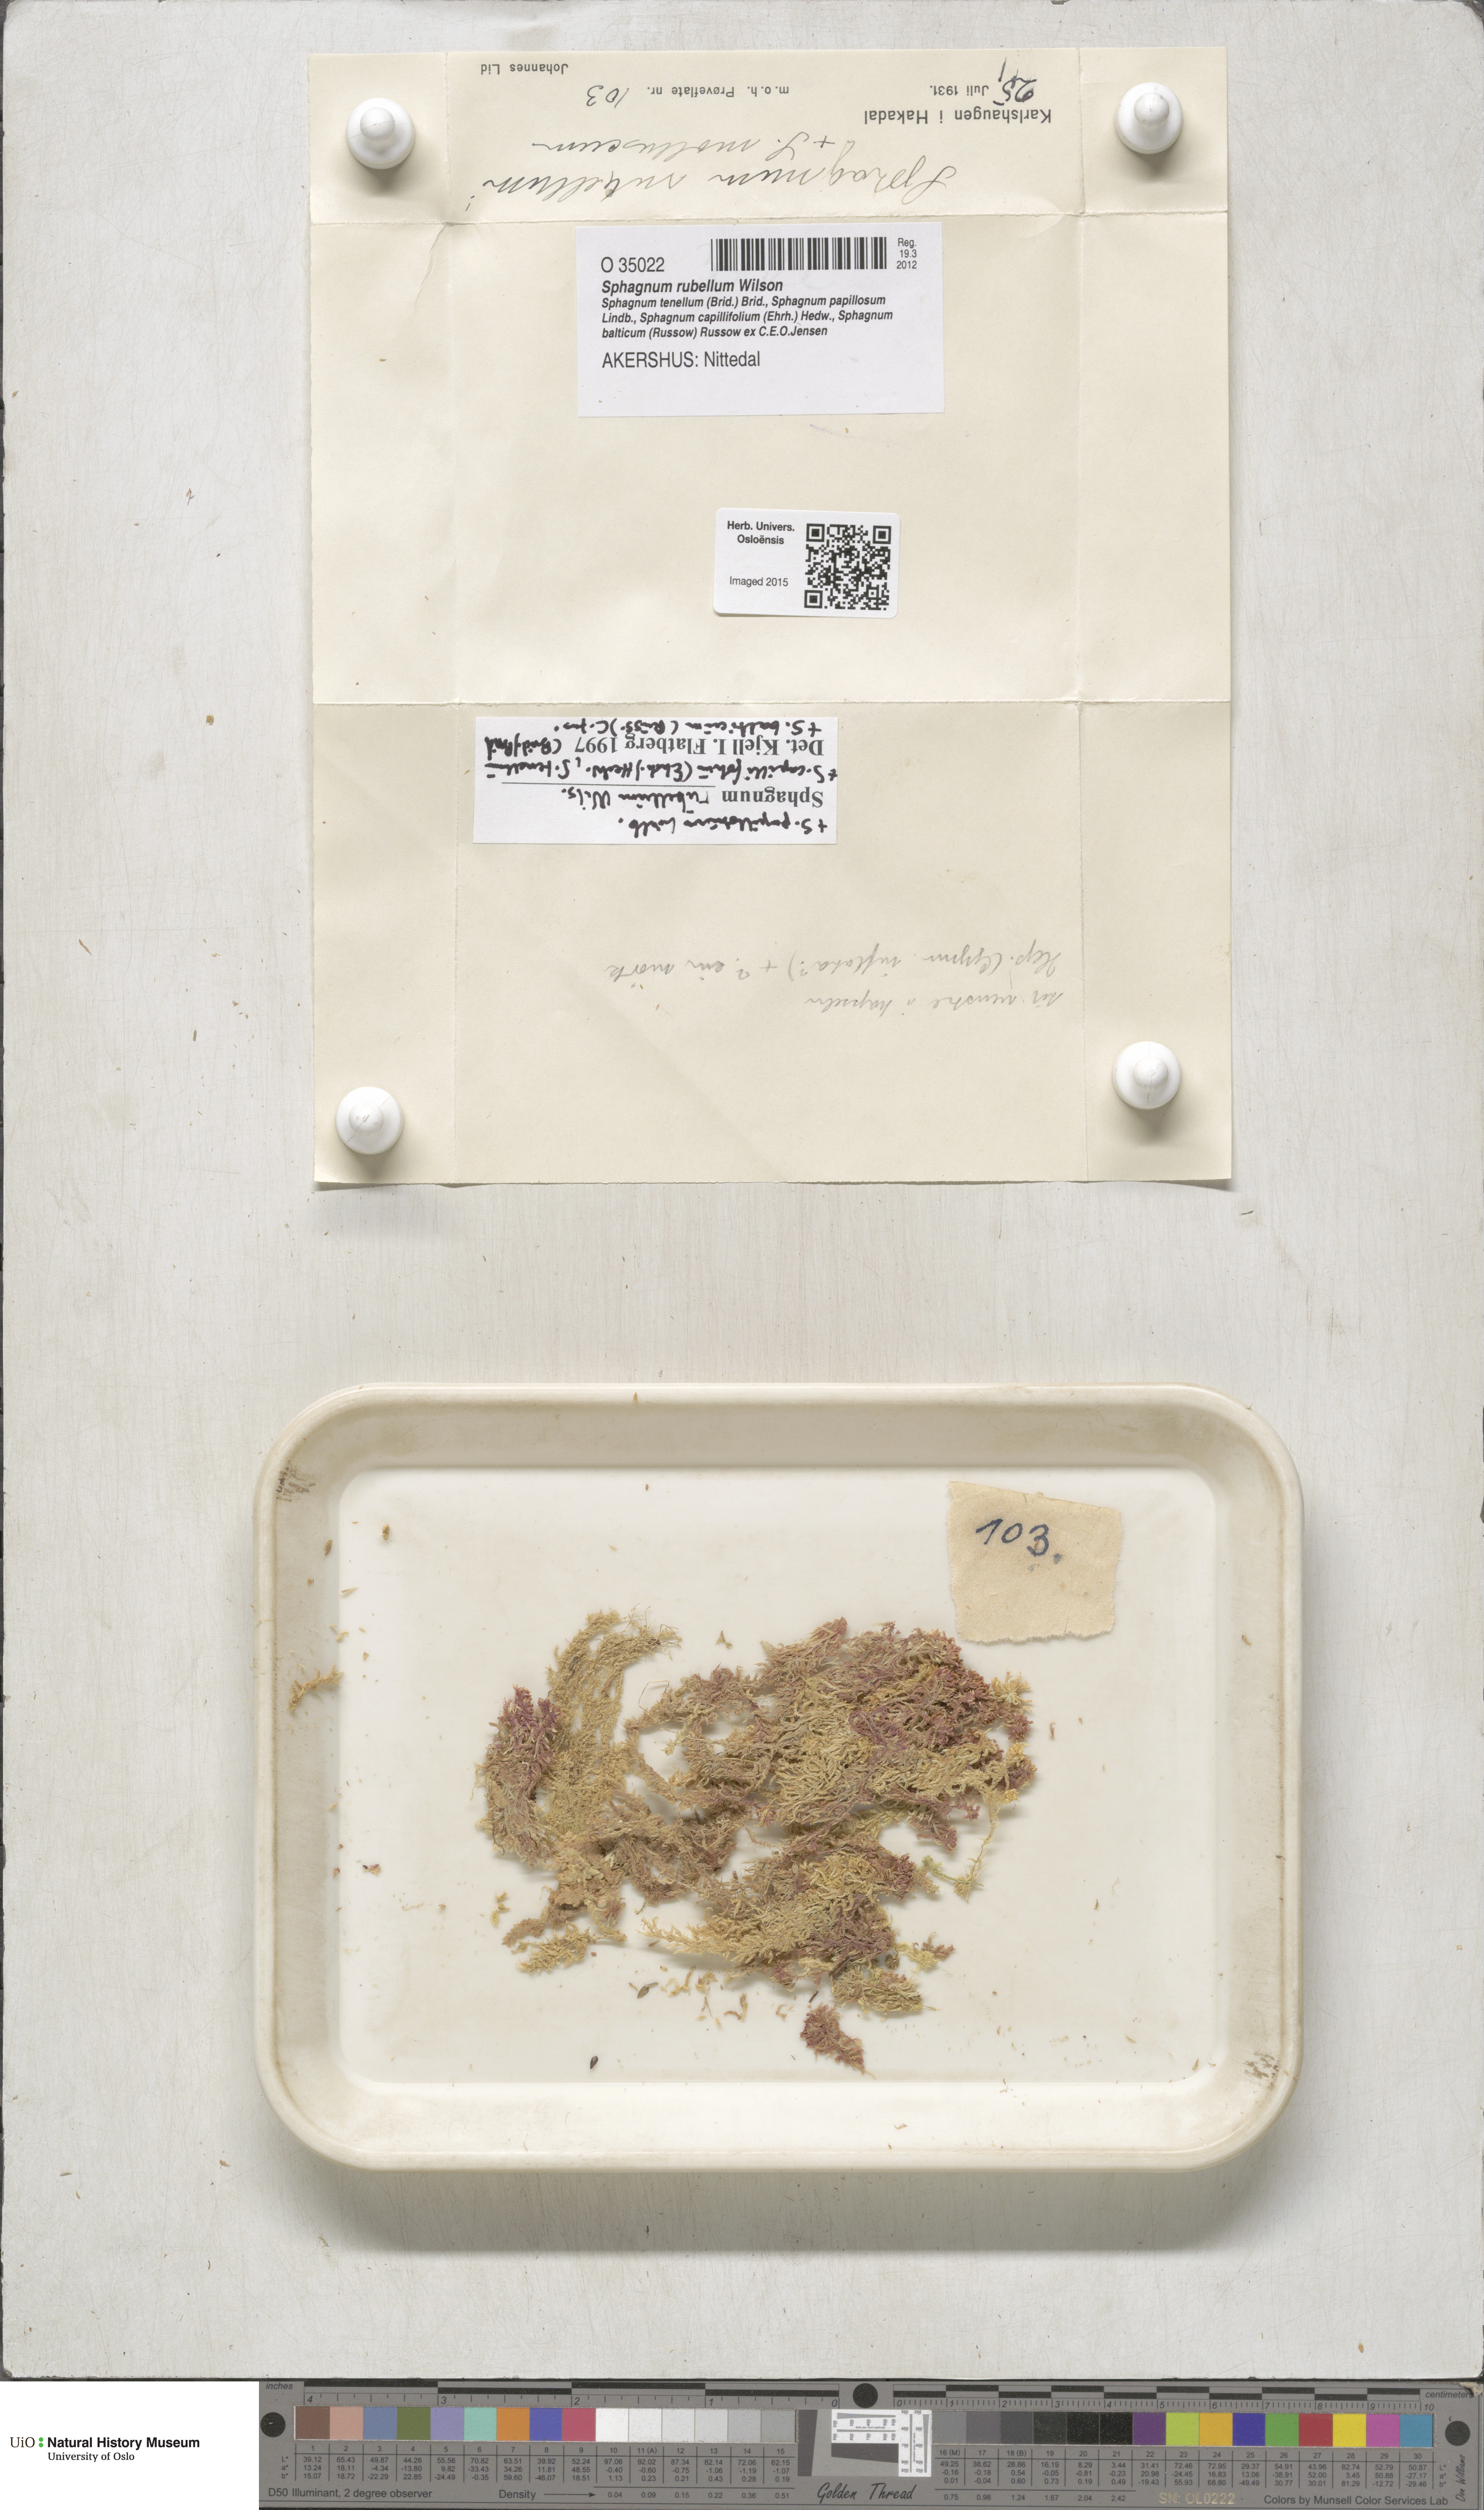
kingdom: Plantae
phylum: Bryophyta
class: Sphagnopsida
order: Sphagnales
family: Sphagnaceae
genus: Sphagnum
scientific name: Sphagnum rubellum
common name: Red peat moss
